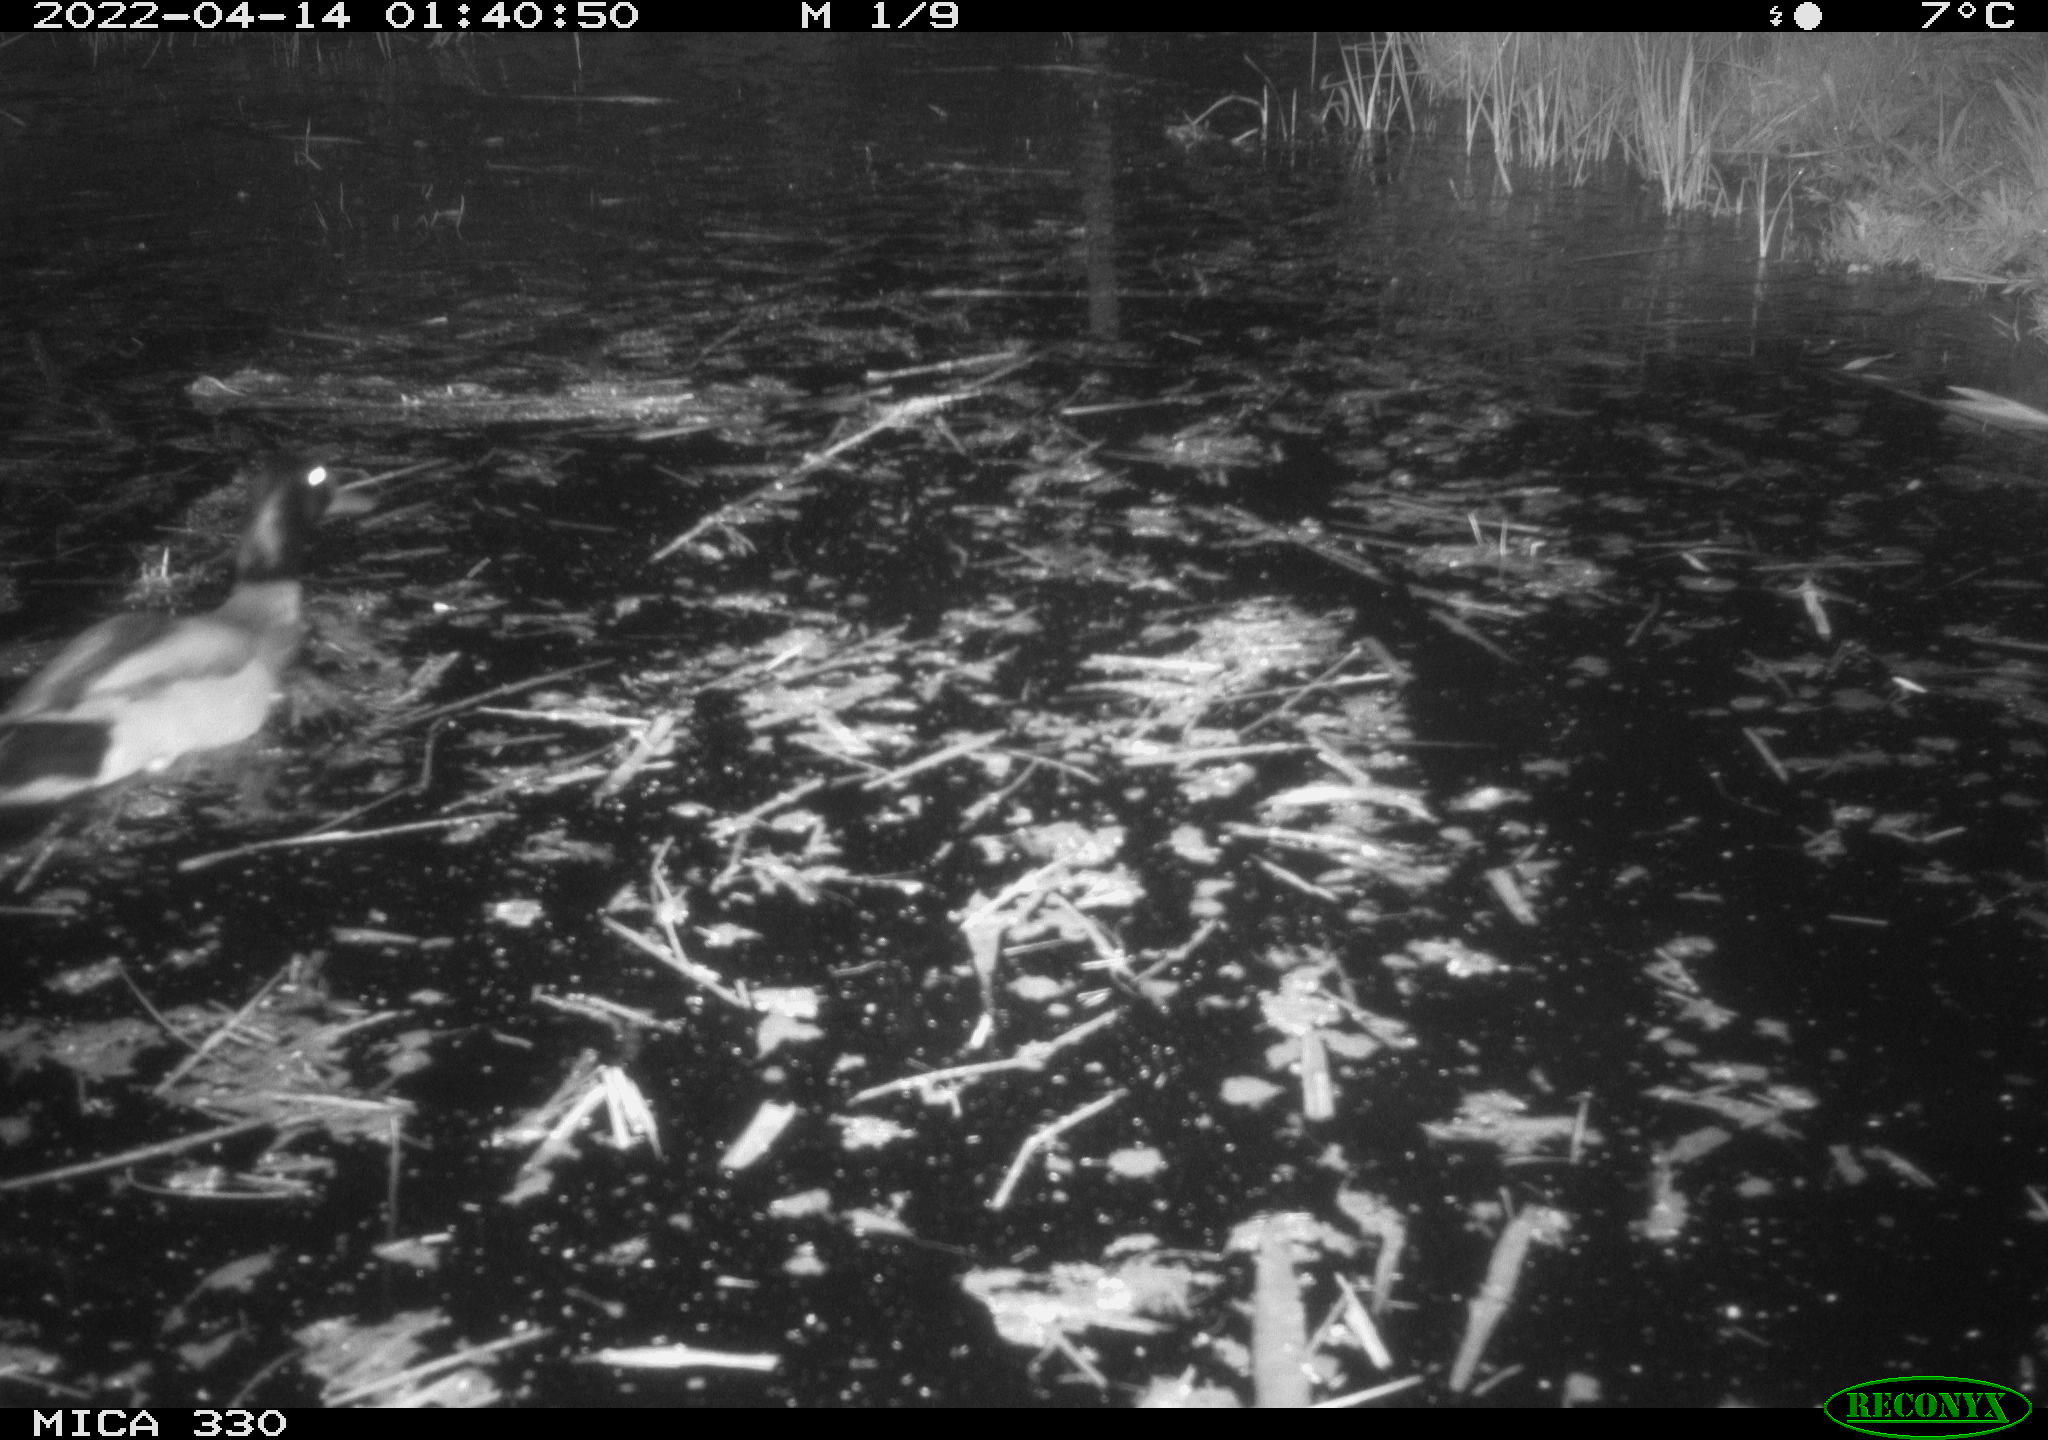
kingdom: Animalia
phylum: Chordata
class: Aves
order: Anseriformes
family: Anatidae
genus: Anas
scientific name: Anas platyrhynchos
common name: Mallard
